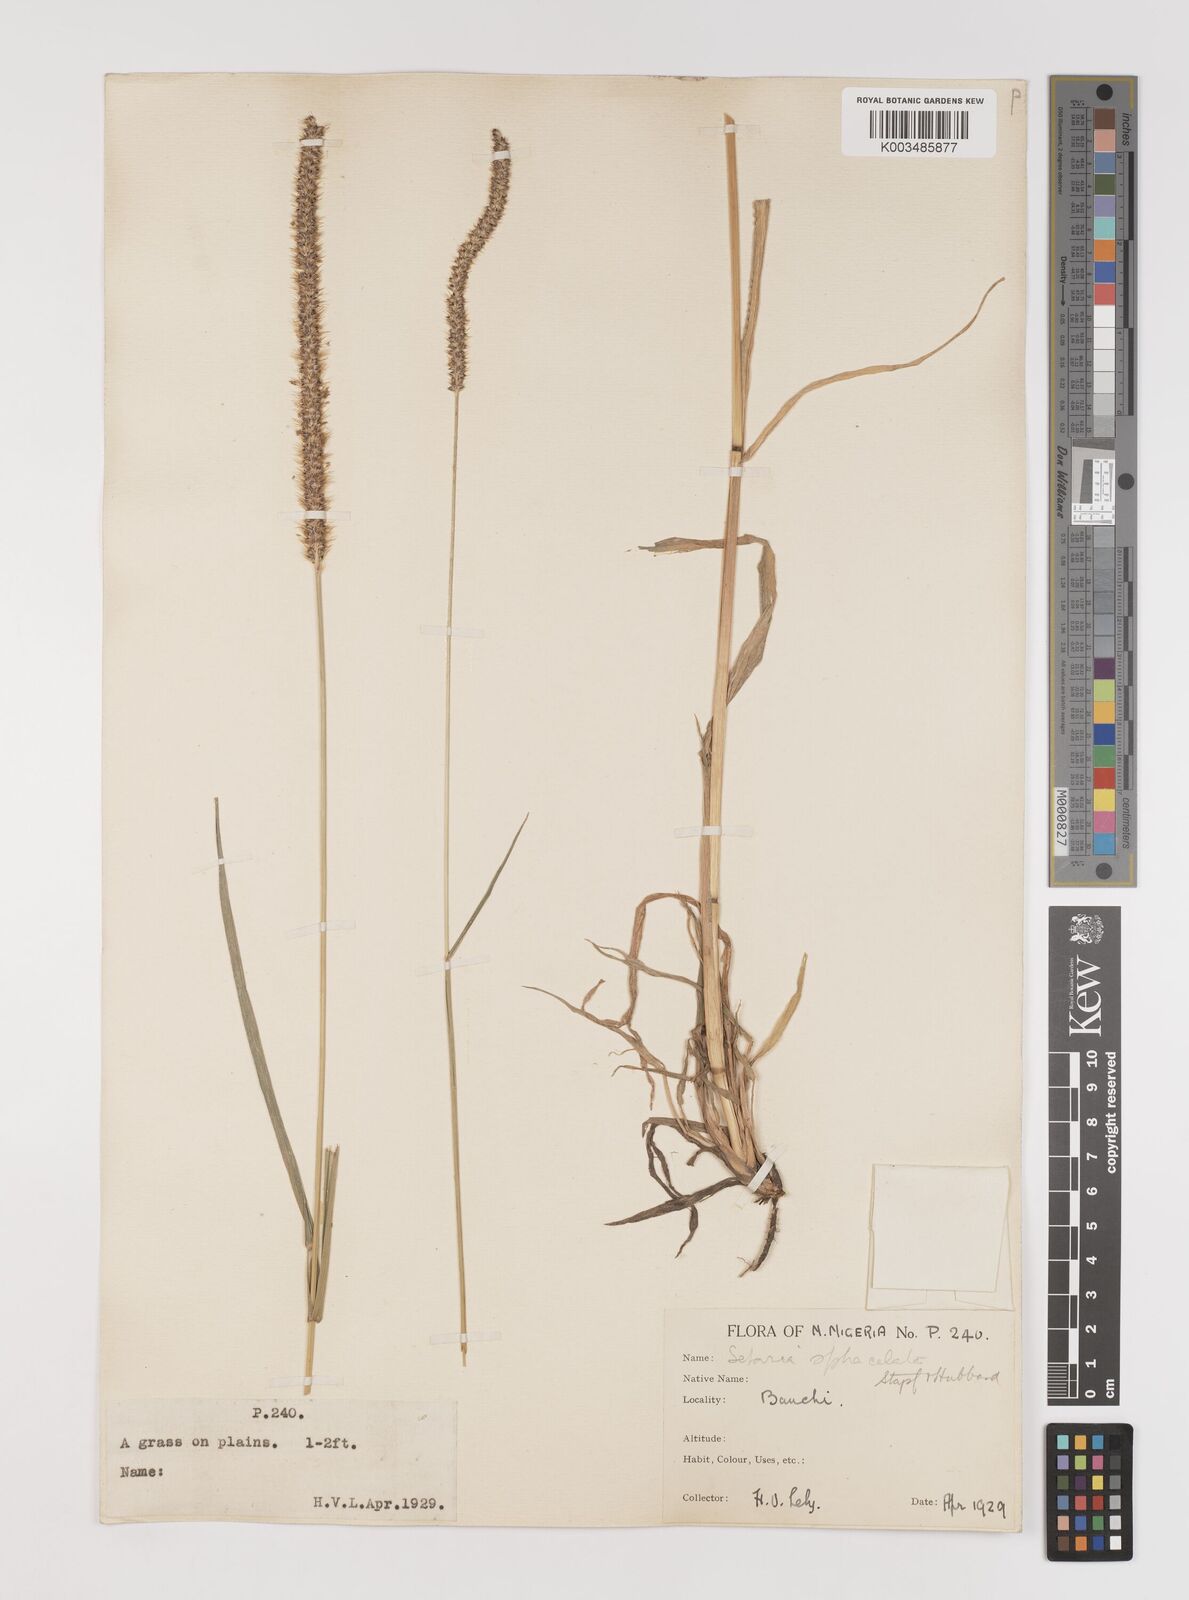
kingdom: Plantae
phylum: Tracheophyta
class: Liliopsida
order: Poales
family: Poaceae
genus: Setaria
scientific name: Setaria sphacelata
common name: African bristlegrass
